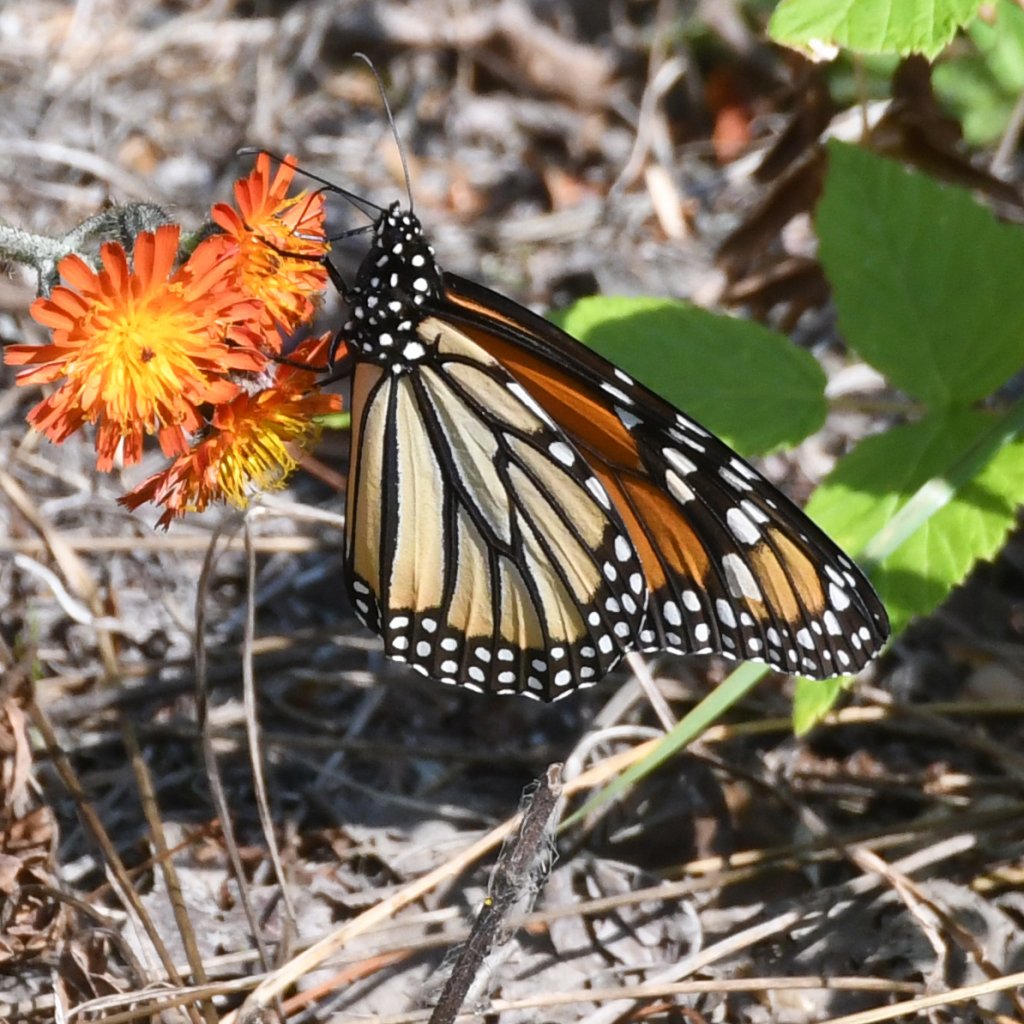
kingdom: Animalia
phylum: Arthropoda
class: Insecta
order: Lepidoptera
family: Nymphalidae
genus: Danaus
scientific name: Danaus plexippus
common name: Monarch
